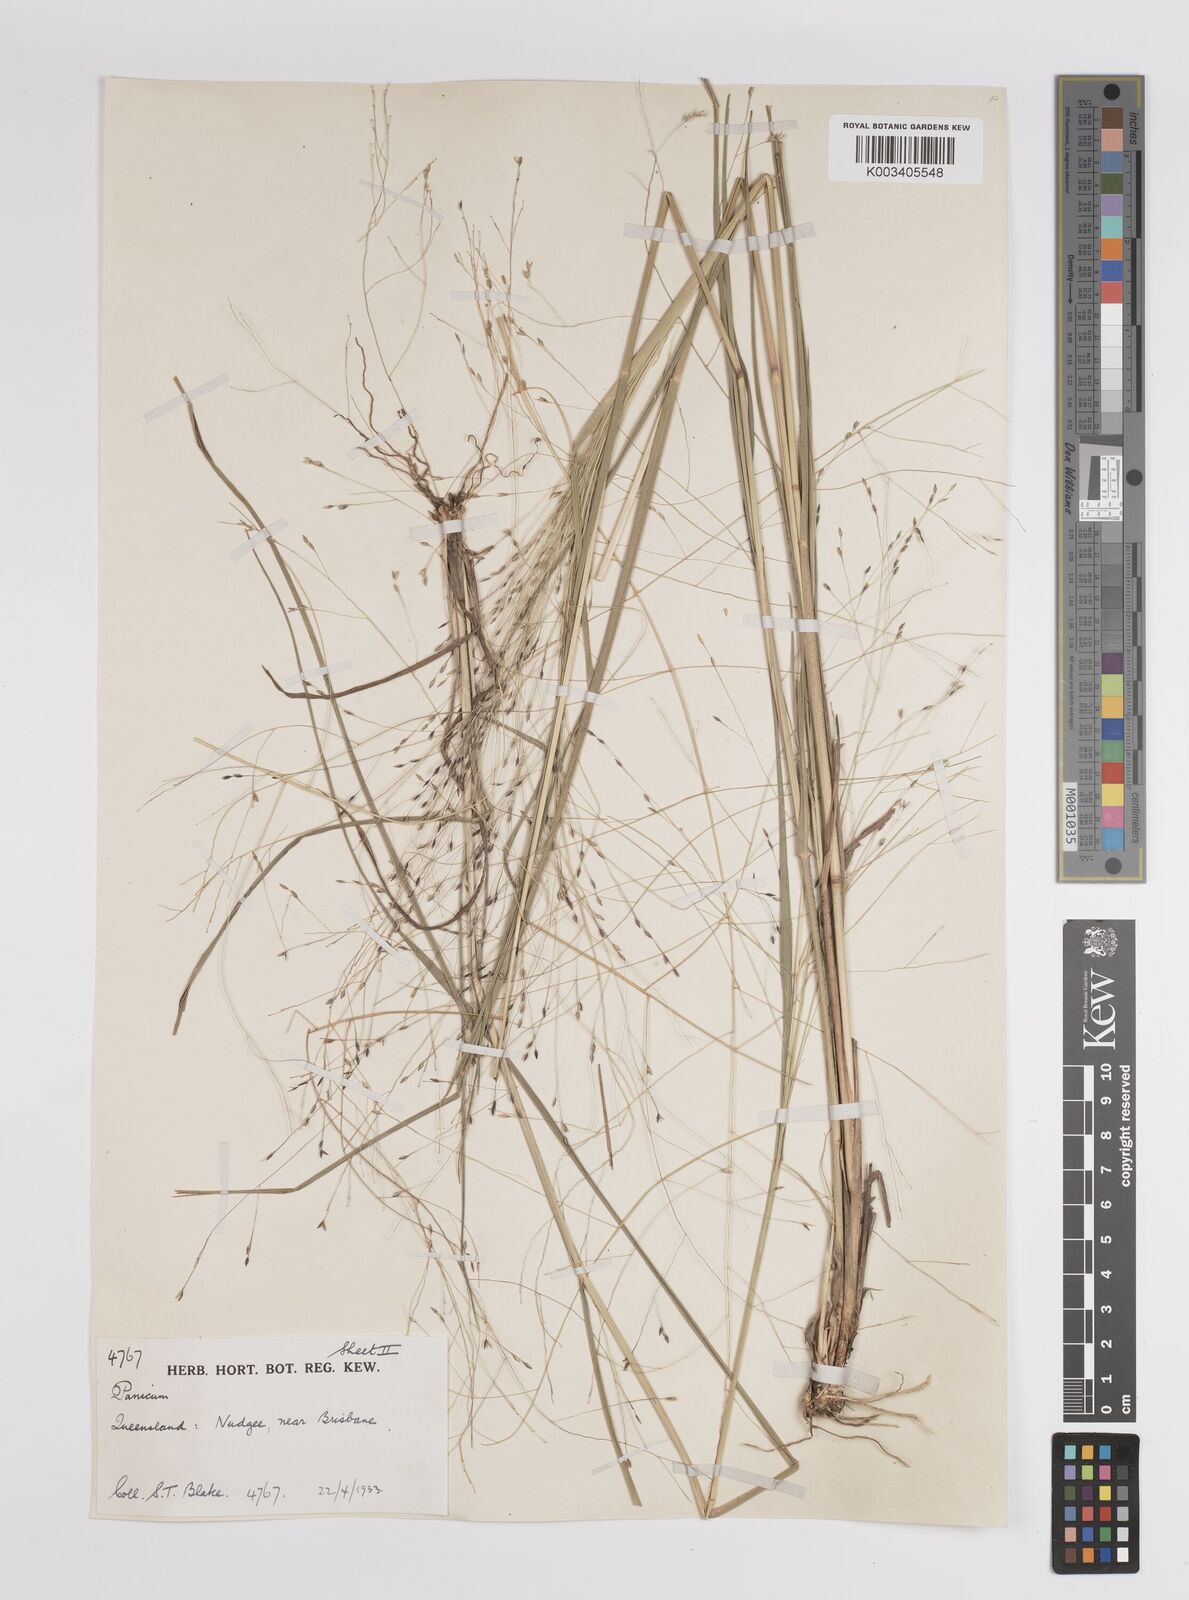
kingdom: Plantae
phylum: Tracheophyta
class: Liliopsida
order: Poales
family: Poaceae
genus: Panicum
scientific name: Panicum
